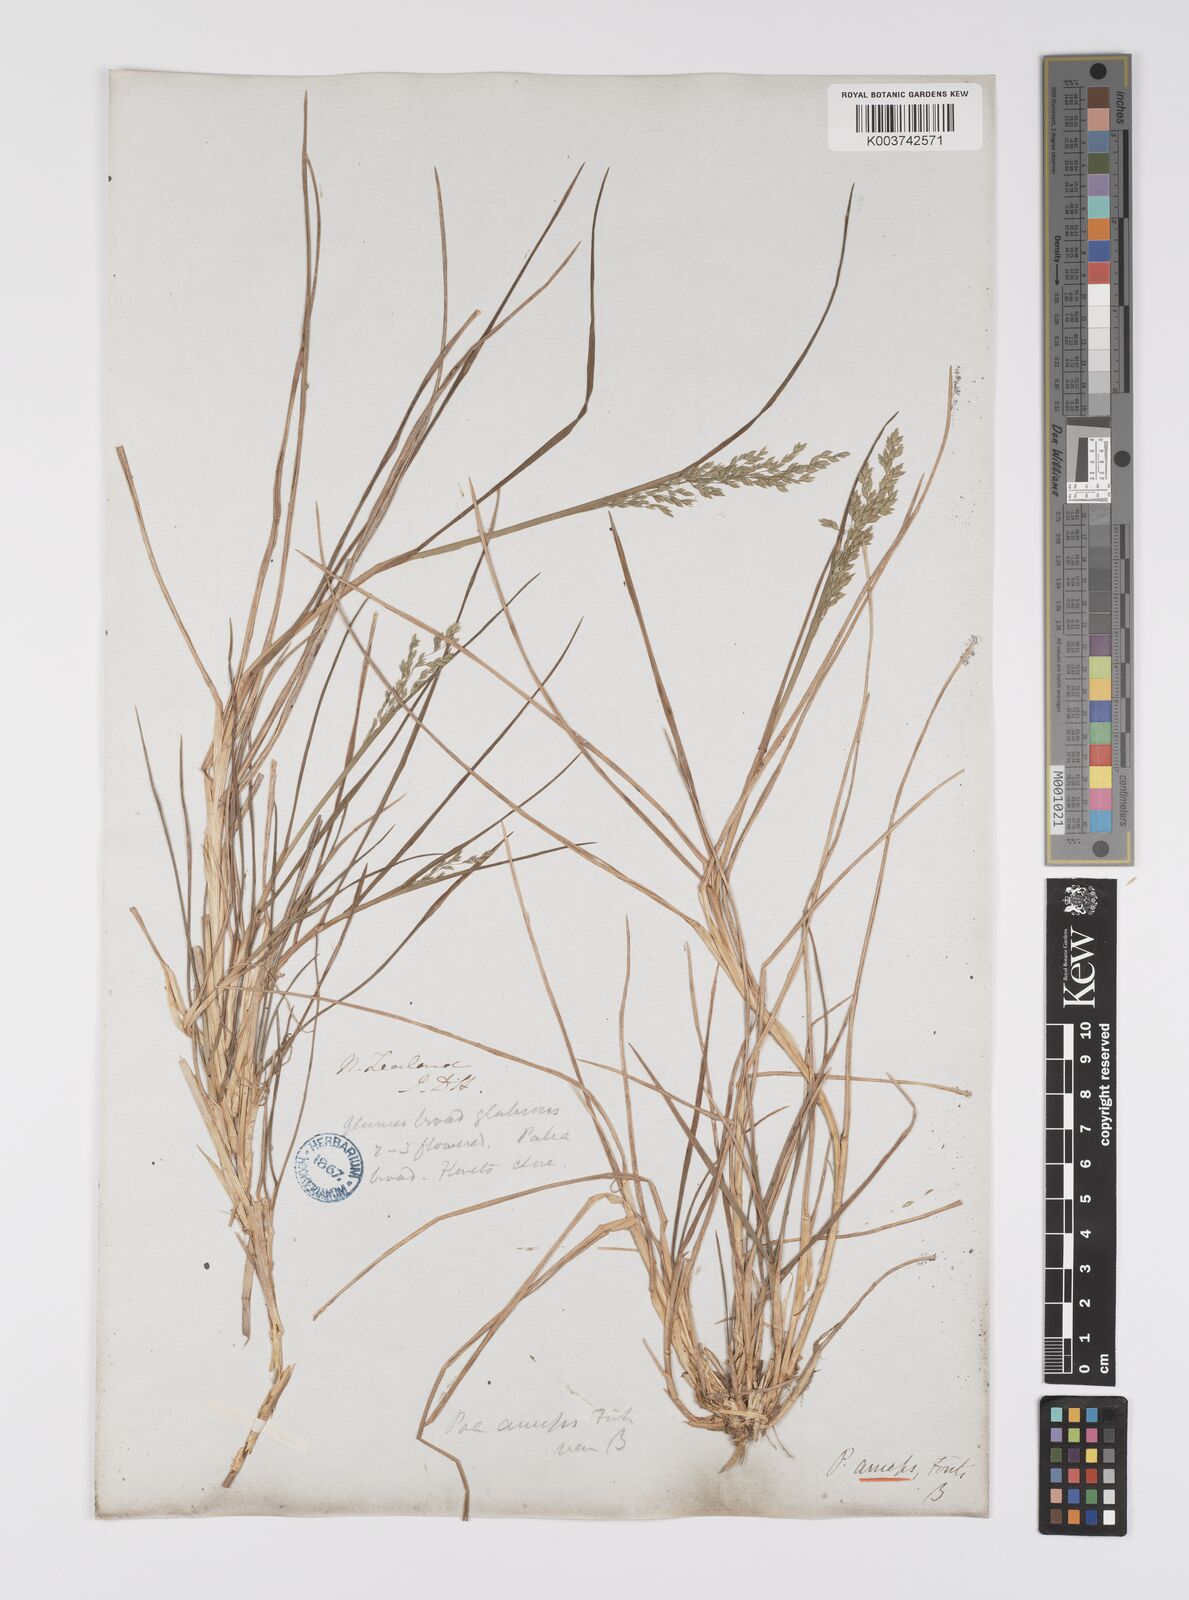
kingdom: Plantae
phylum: Tracheophyta
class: Liliopsida
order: Poales
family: Poaceae
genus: Poa
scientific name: Poa anceps
